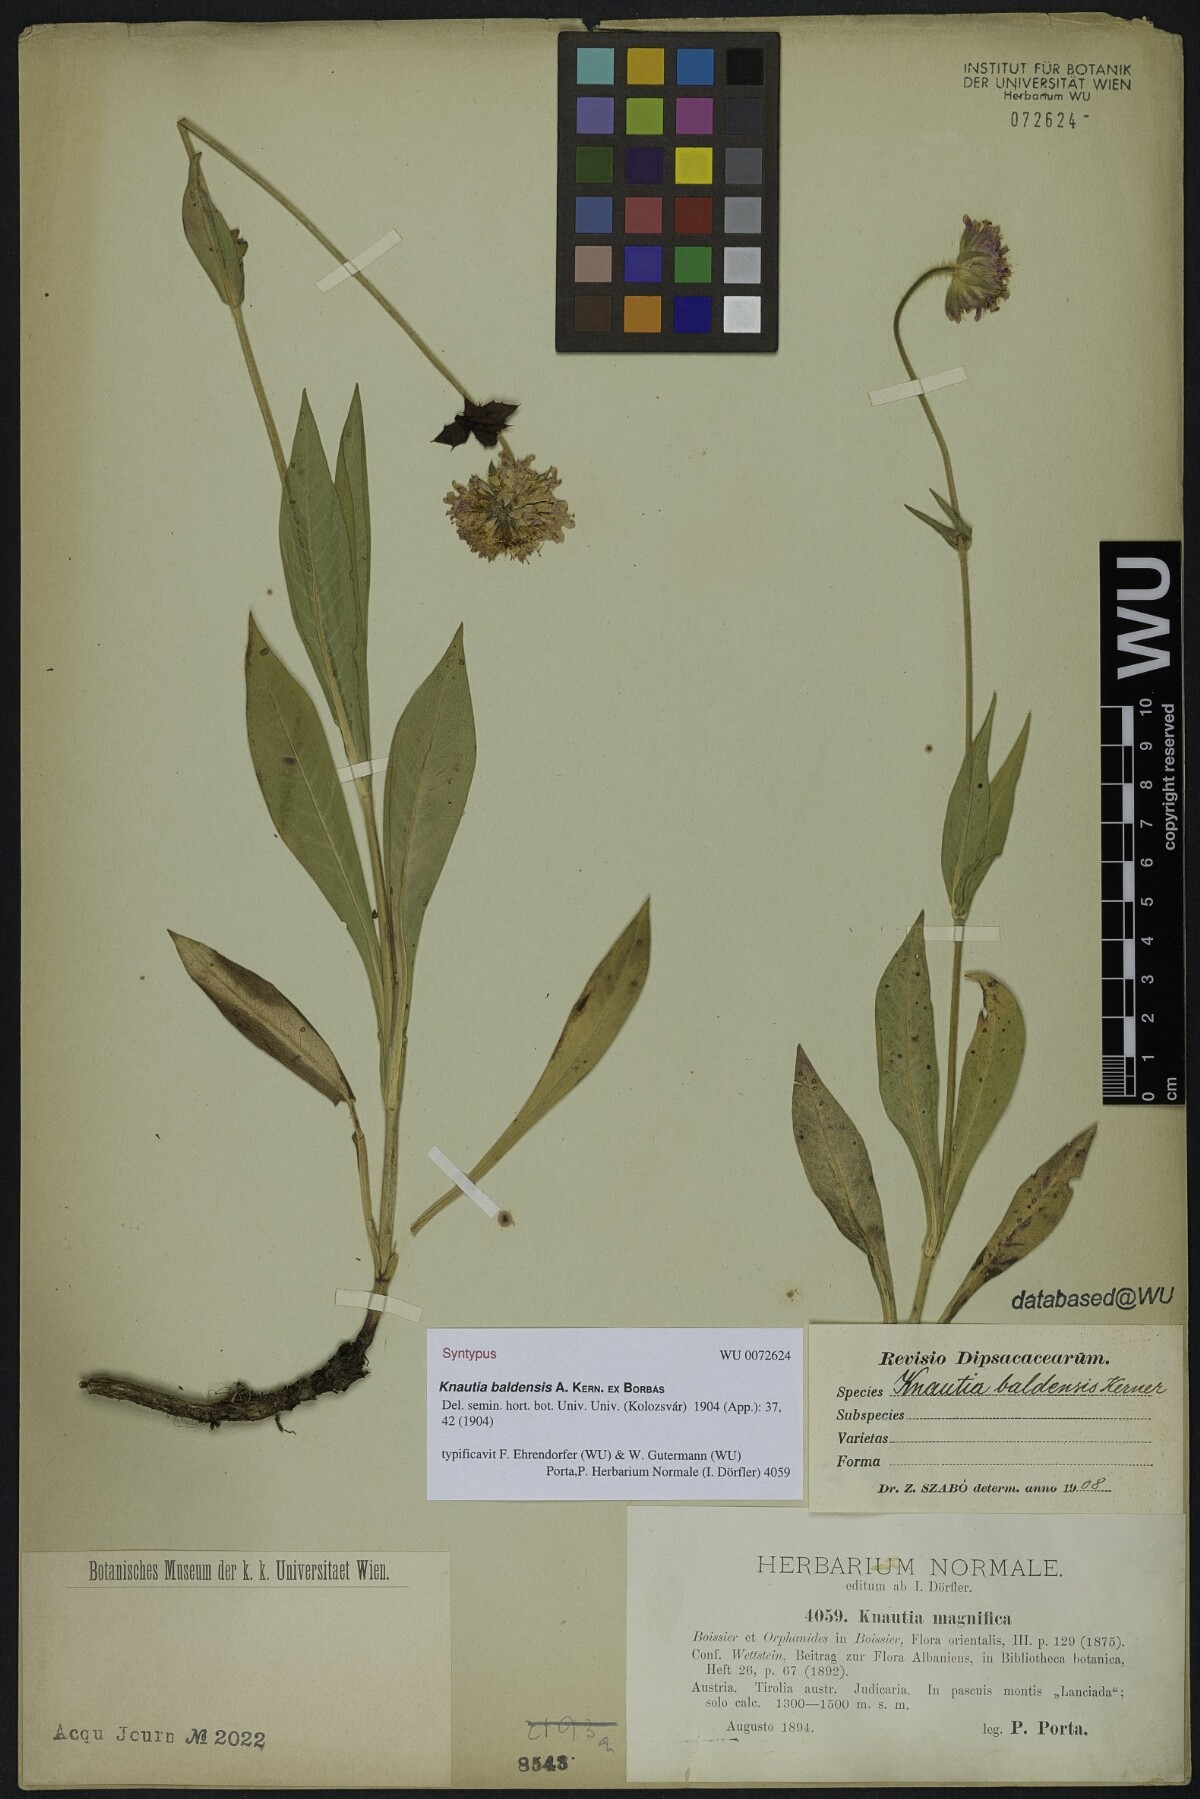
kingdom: Plantae
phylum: Tracheophyta
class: Magnoliopsida
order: Dipsacales
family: Caprifoliaceae
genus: Knautia
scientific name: Knautia baldensis
